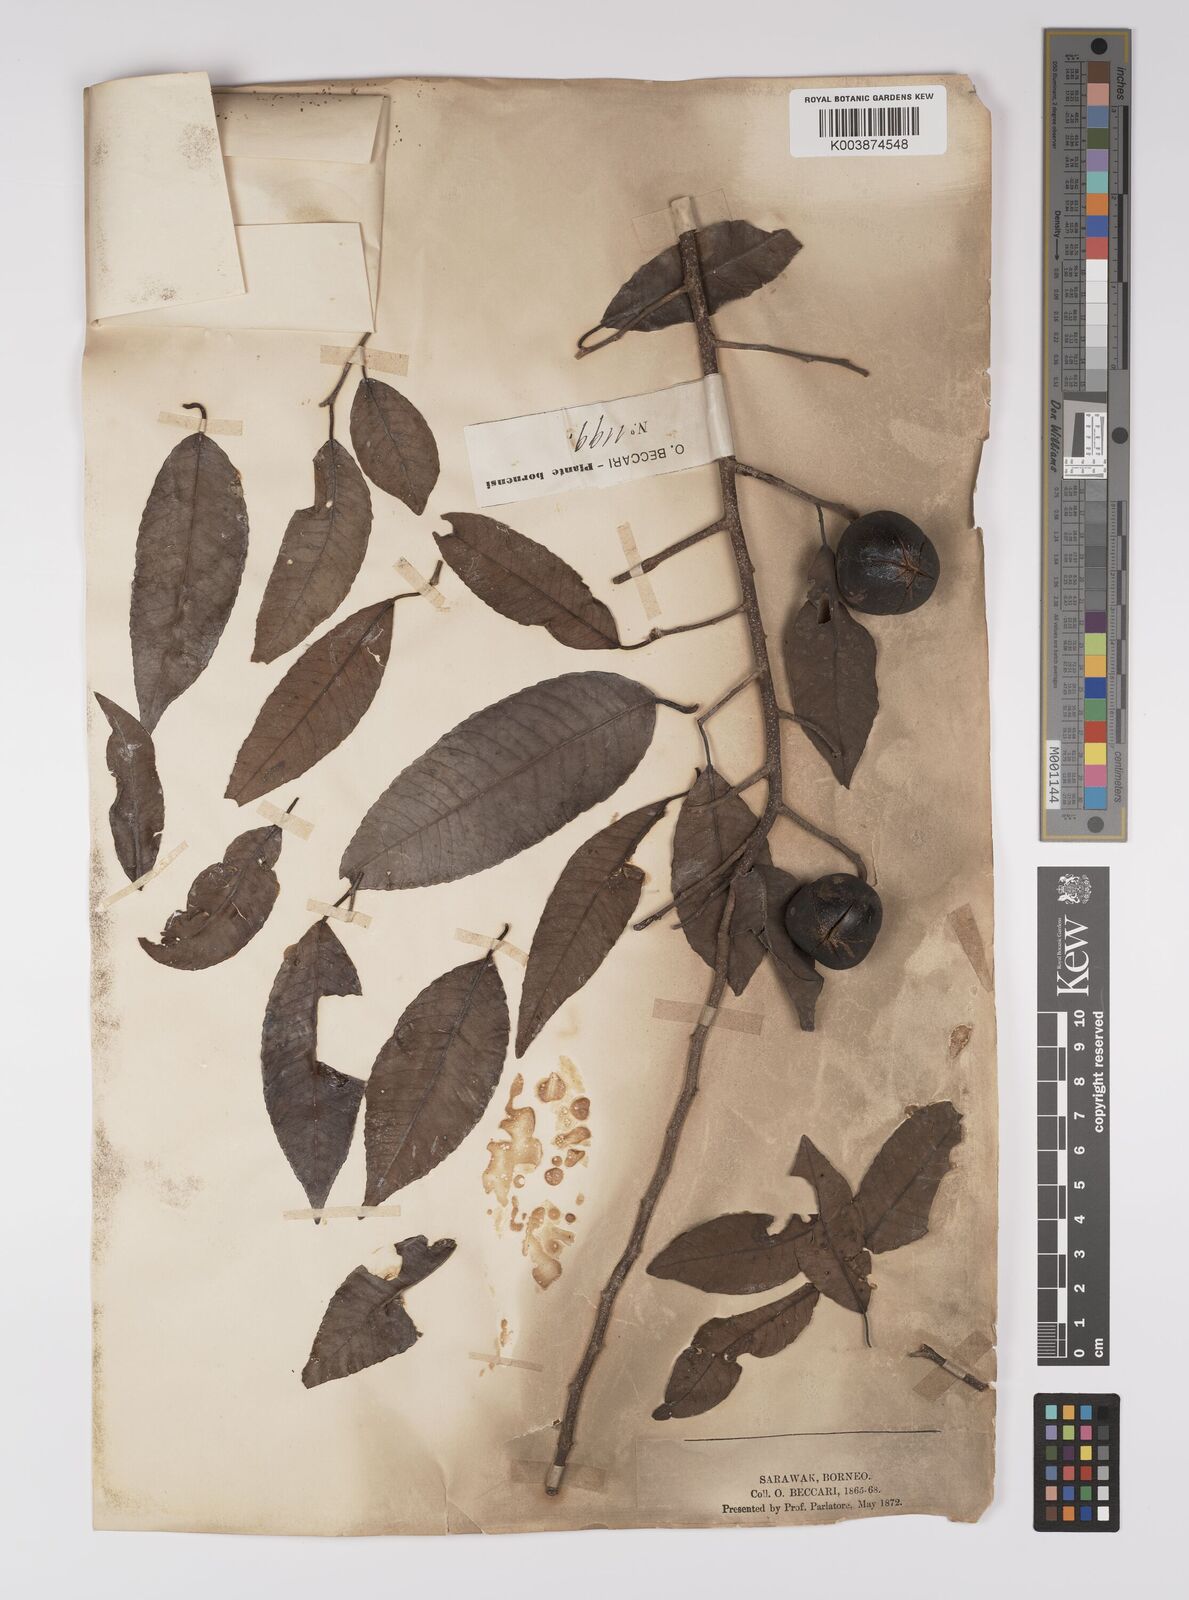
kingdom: Plantae
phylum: Tracheophyta
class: Magnoliopsida
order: Malpighiales
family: Euphorbiaceae
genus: Shirakiopsis
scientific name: Shirakiopsis indica
